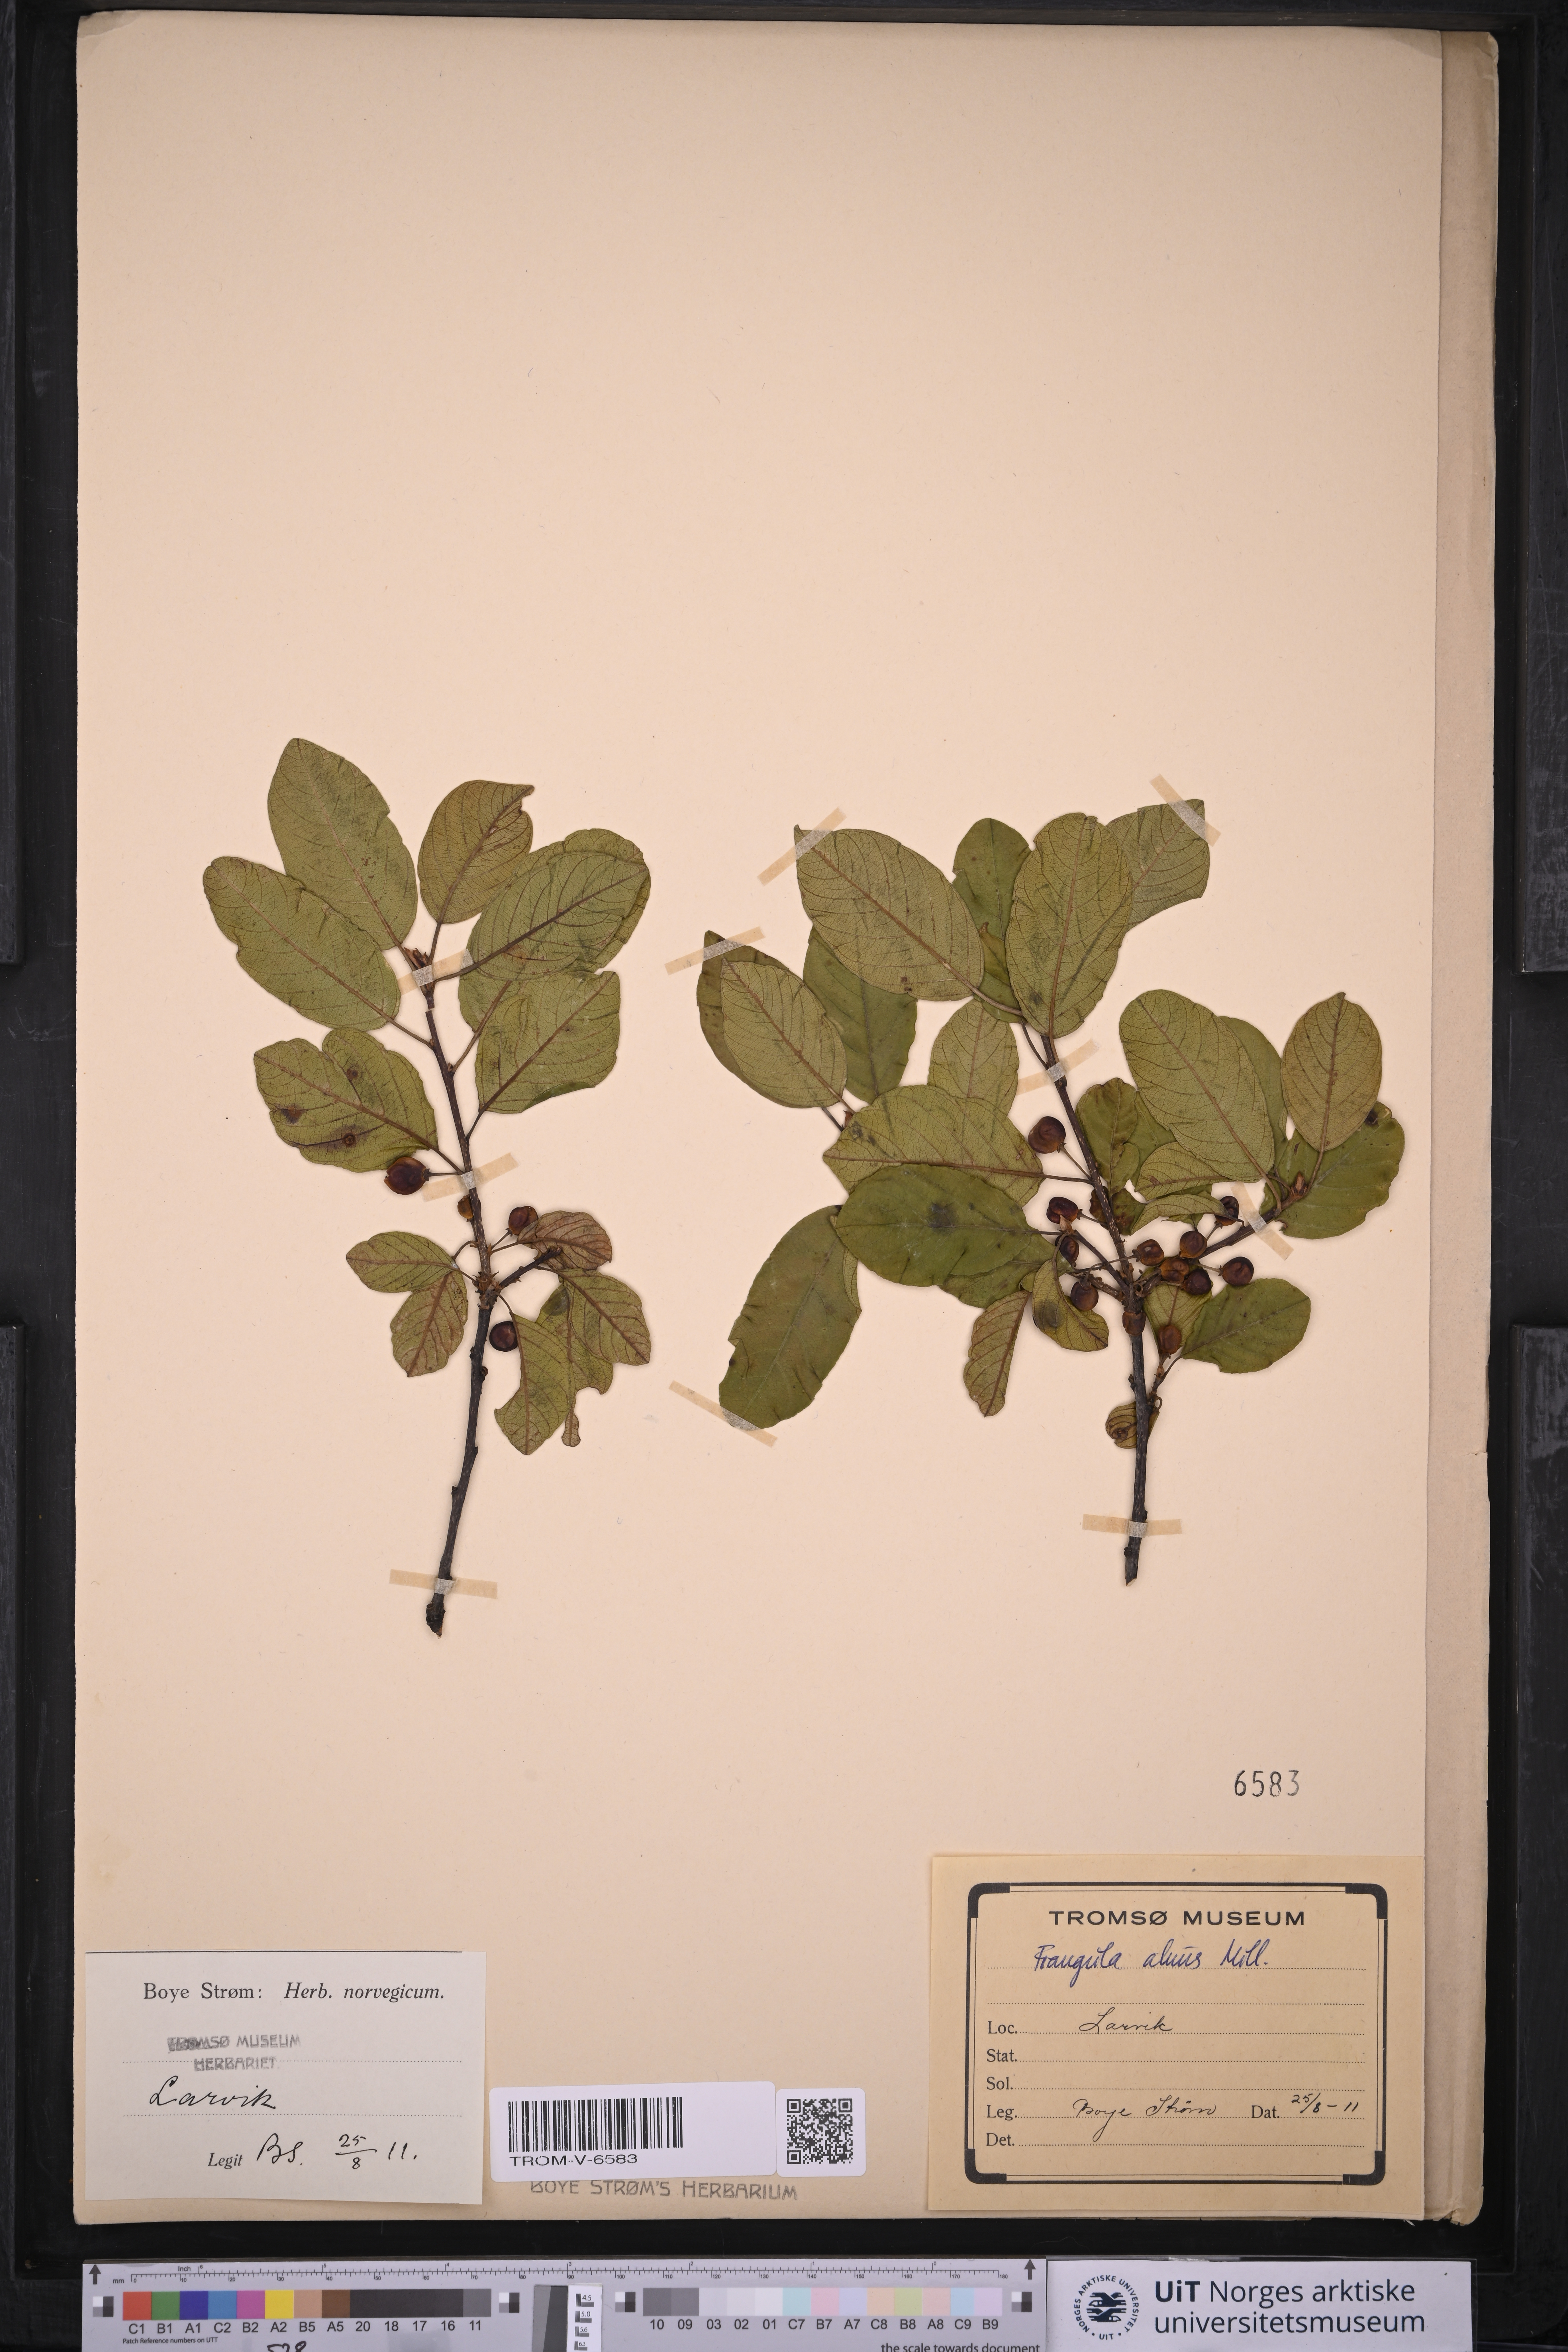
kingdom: Plantae
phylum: Tracheophyta
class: Magnoliopsida
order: Rosales
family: Rhamnaceae
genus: Frangula
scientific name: Frangula alnus
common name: Alder buckthorn
